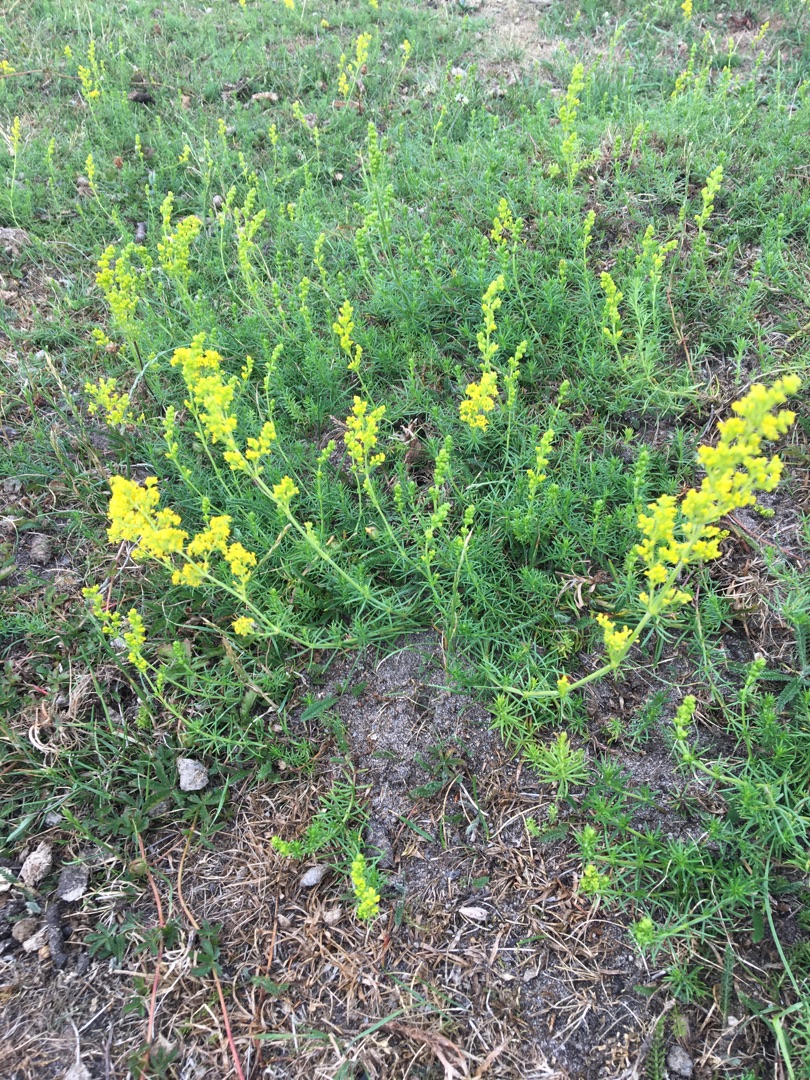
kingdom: Plantae
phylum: Tracheophyta
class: Magnoliopsida
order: Gentianales
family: Rubiaceae
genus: Galium
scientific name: Galium verum
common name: Gul snerre
